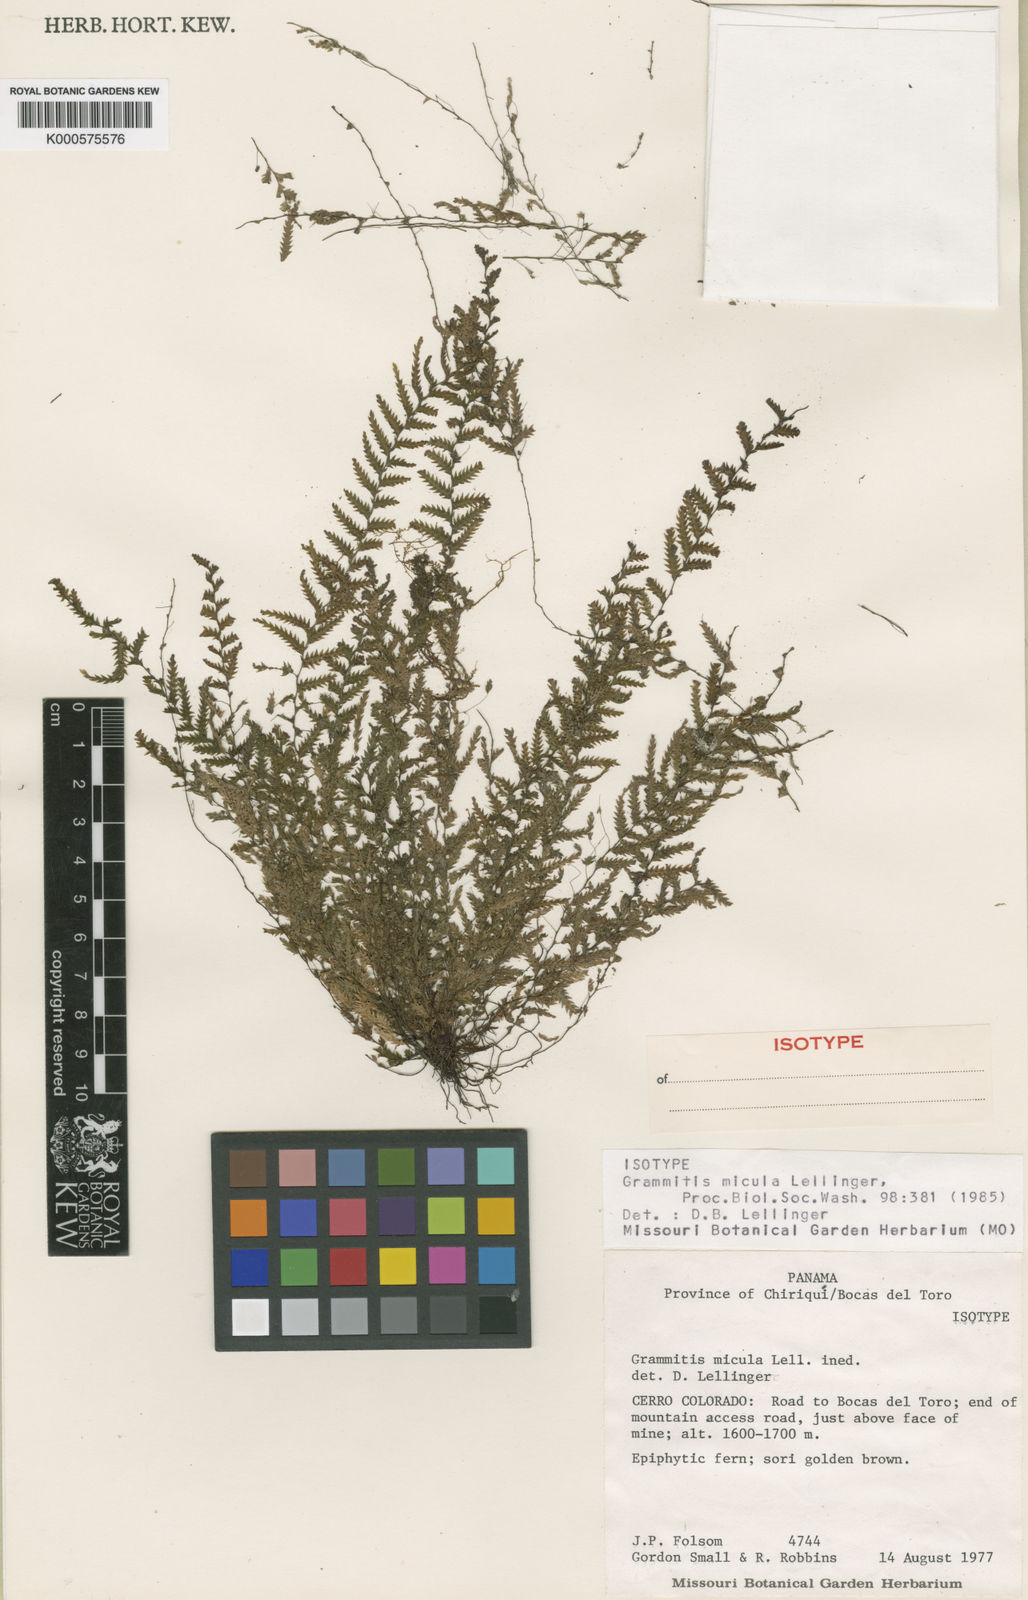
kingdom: Plantae
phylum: Tracheophyta
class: Polypodiopsida
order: Polypodiales
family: Polypodiaceae
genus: Lellingeria
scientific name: Lellingeria micula
